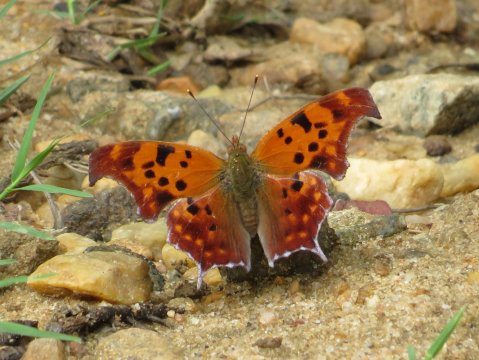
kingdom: Animalia
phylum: Arthropoda
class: Insecta
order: Lepidoptera
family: Nymphalidae
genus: Polygonia
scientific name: Polygonia interrogationis
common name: Question Mark
